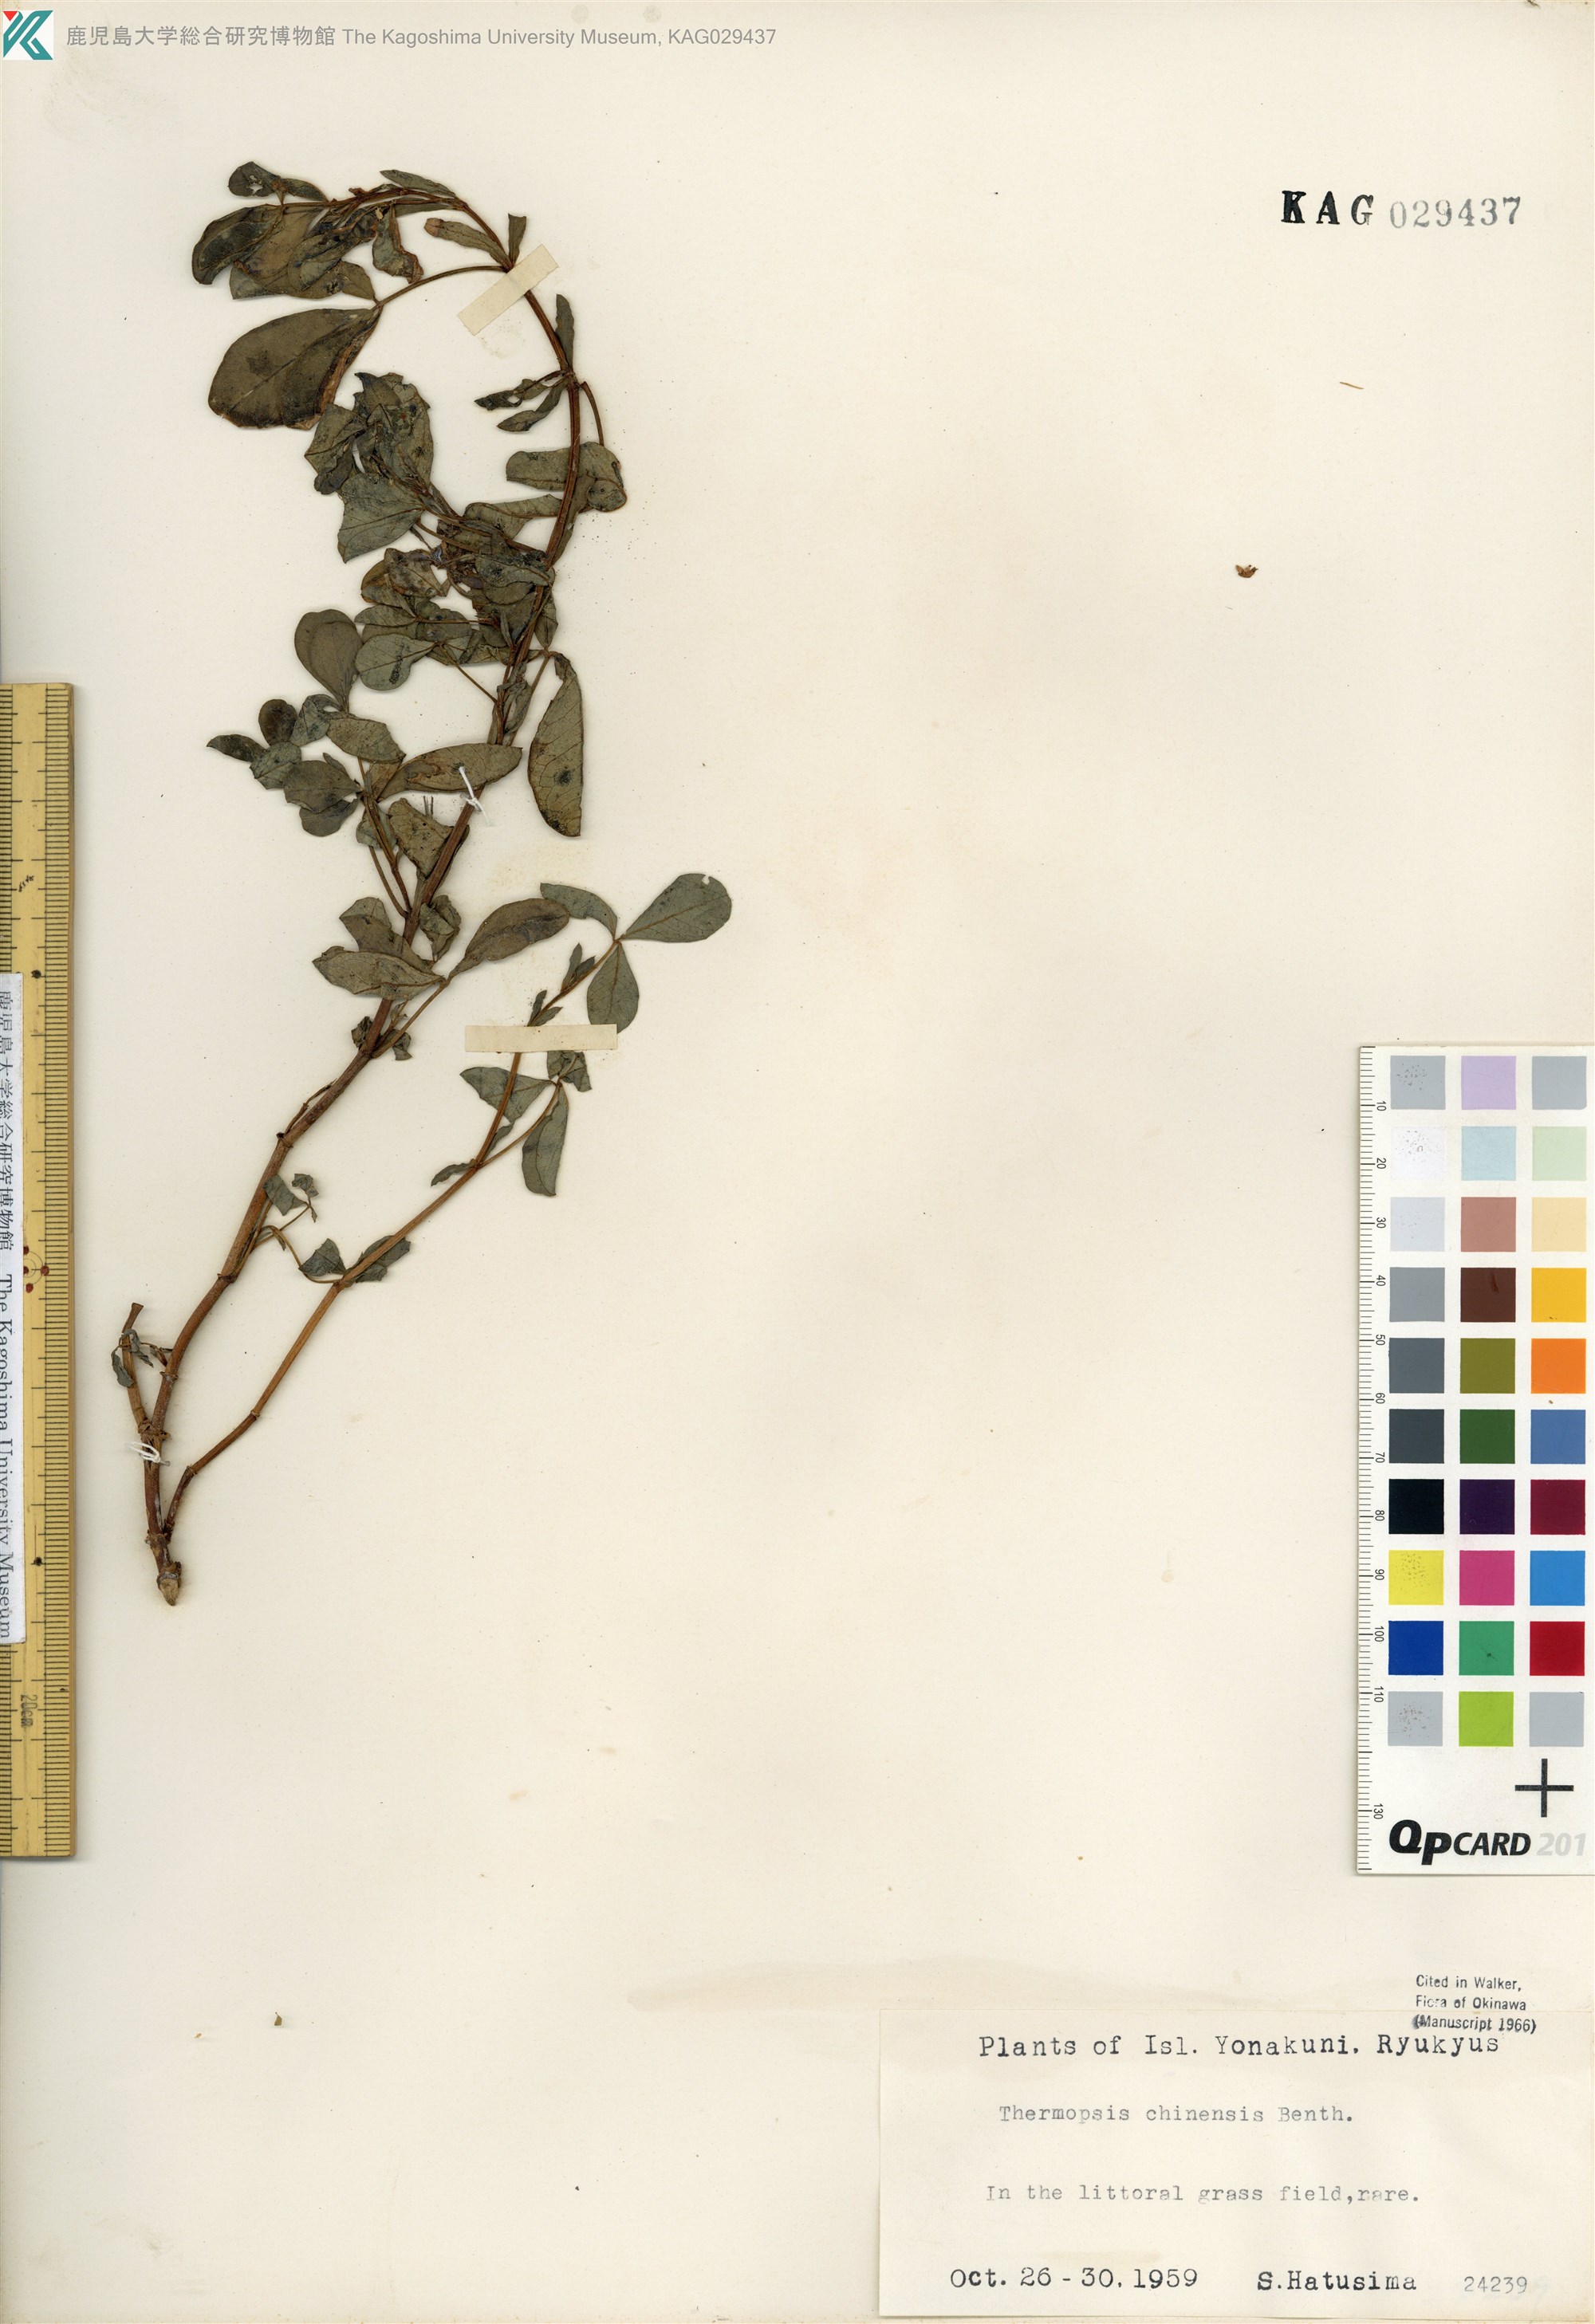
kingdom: Plantae
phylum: Tracheophyta
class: Magnoliopsida
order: Fabales
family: Fabaceae
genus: Thermopsis
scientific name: Thermopsis chinensis
